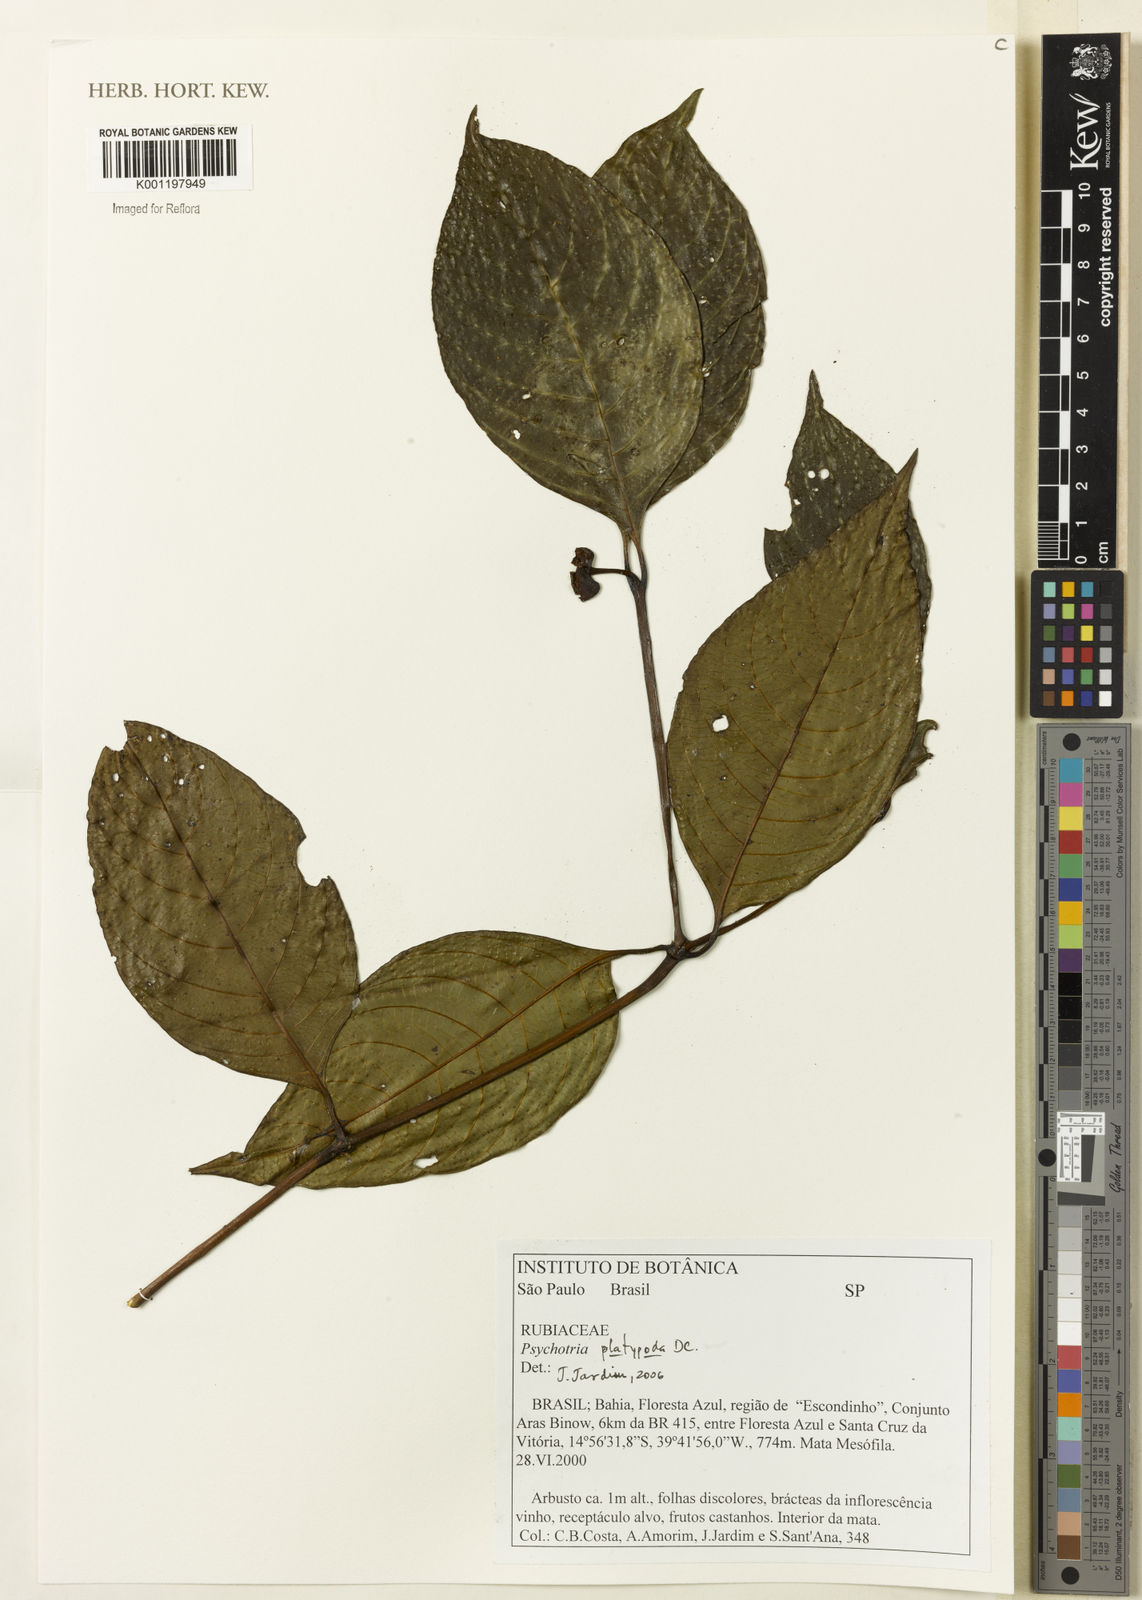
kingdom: Plantae
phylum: Tracheophyta
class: Magnoliopsida
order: Gentianales
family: Rubiaceae
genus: Palicourea
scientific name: Palicourea dichotoma
